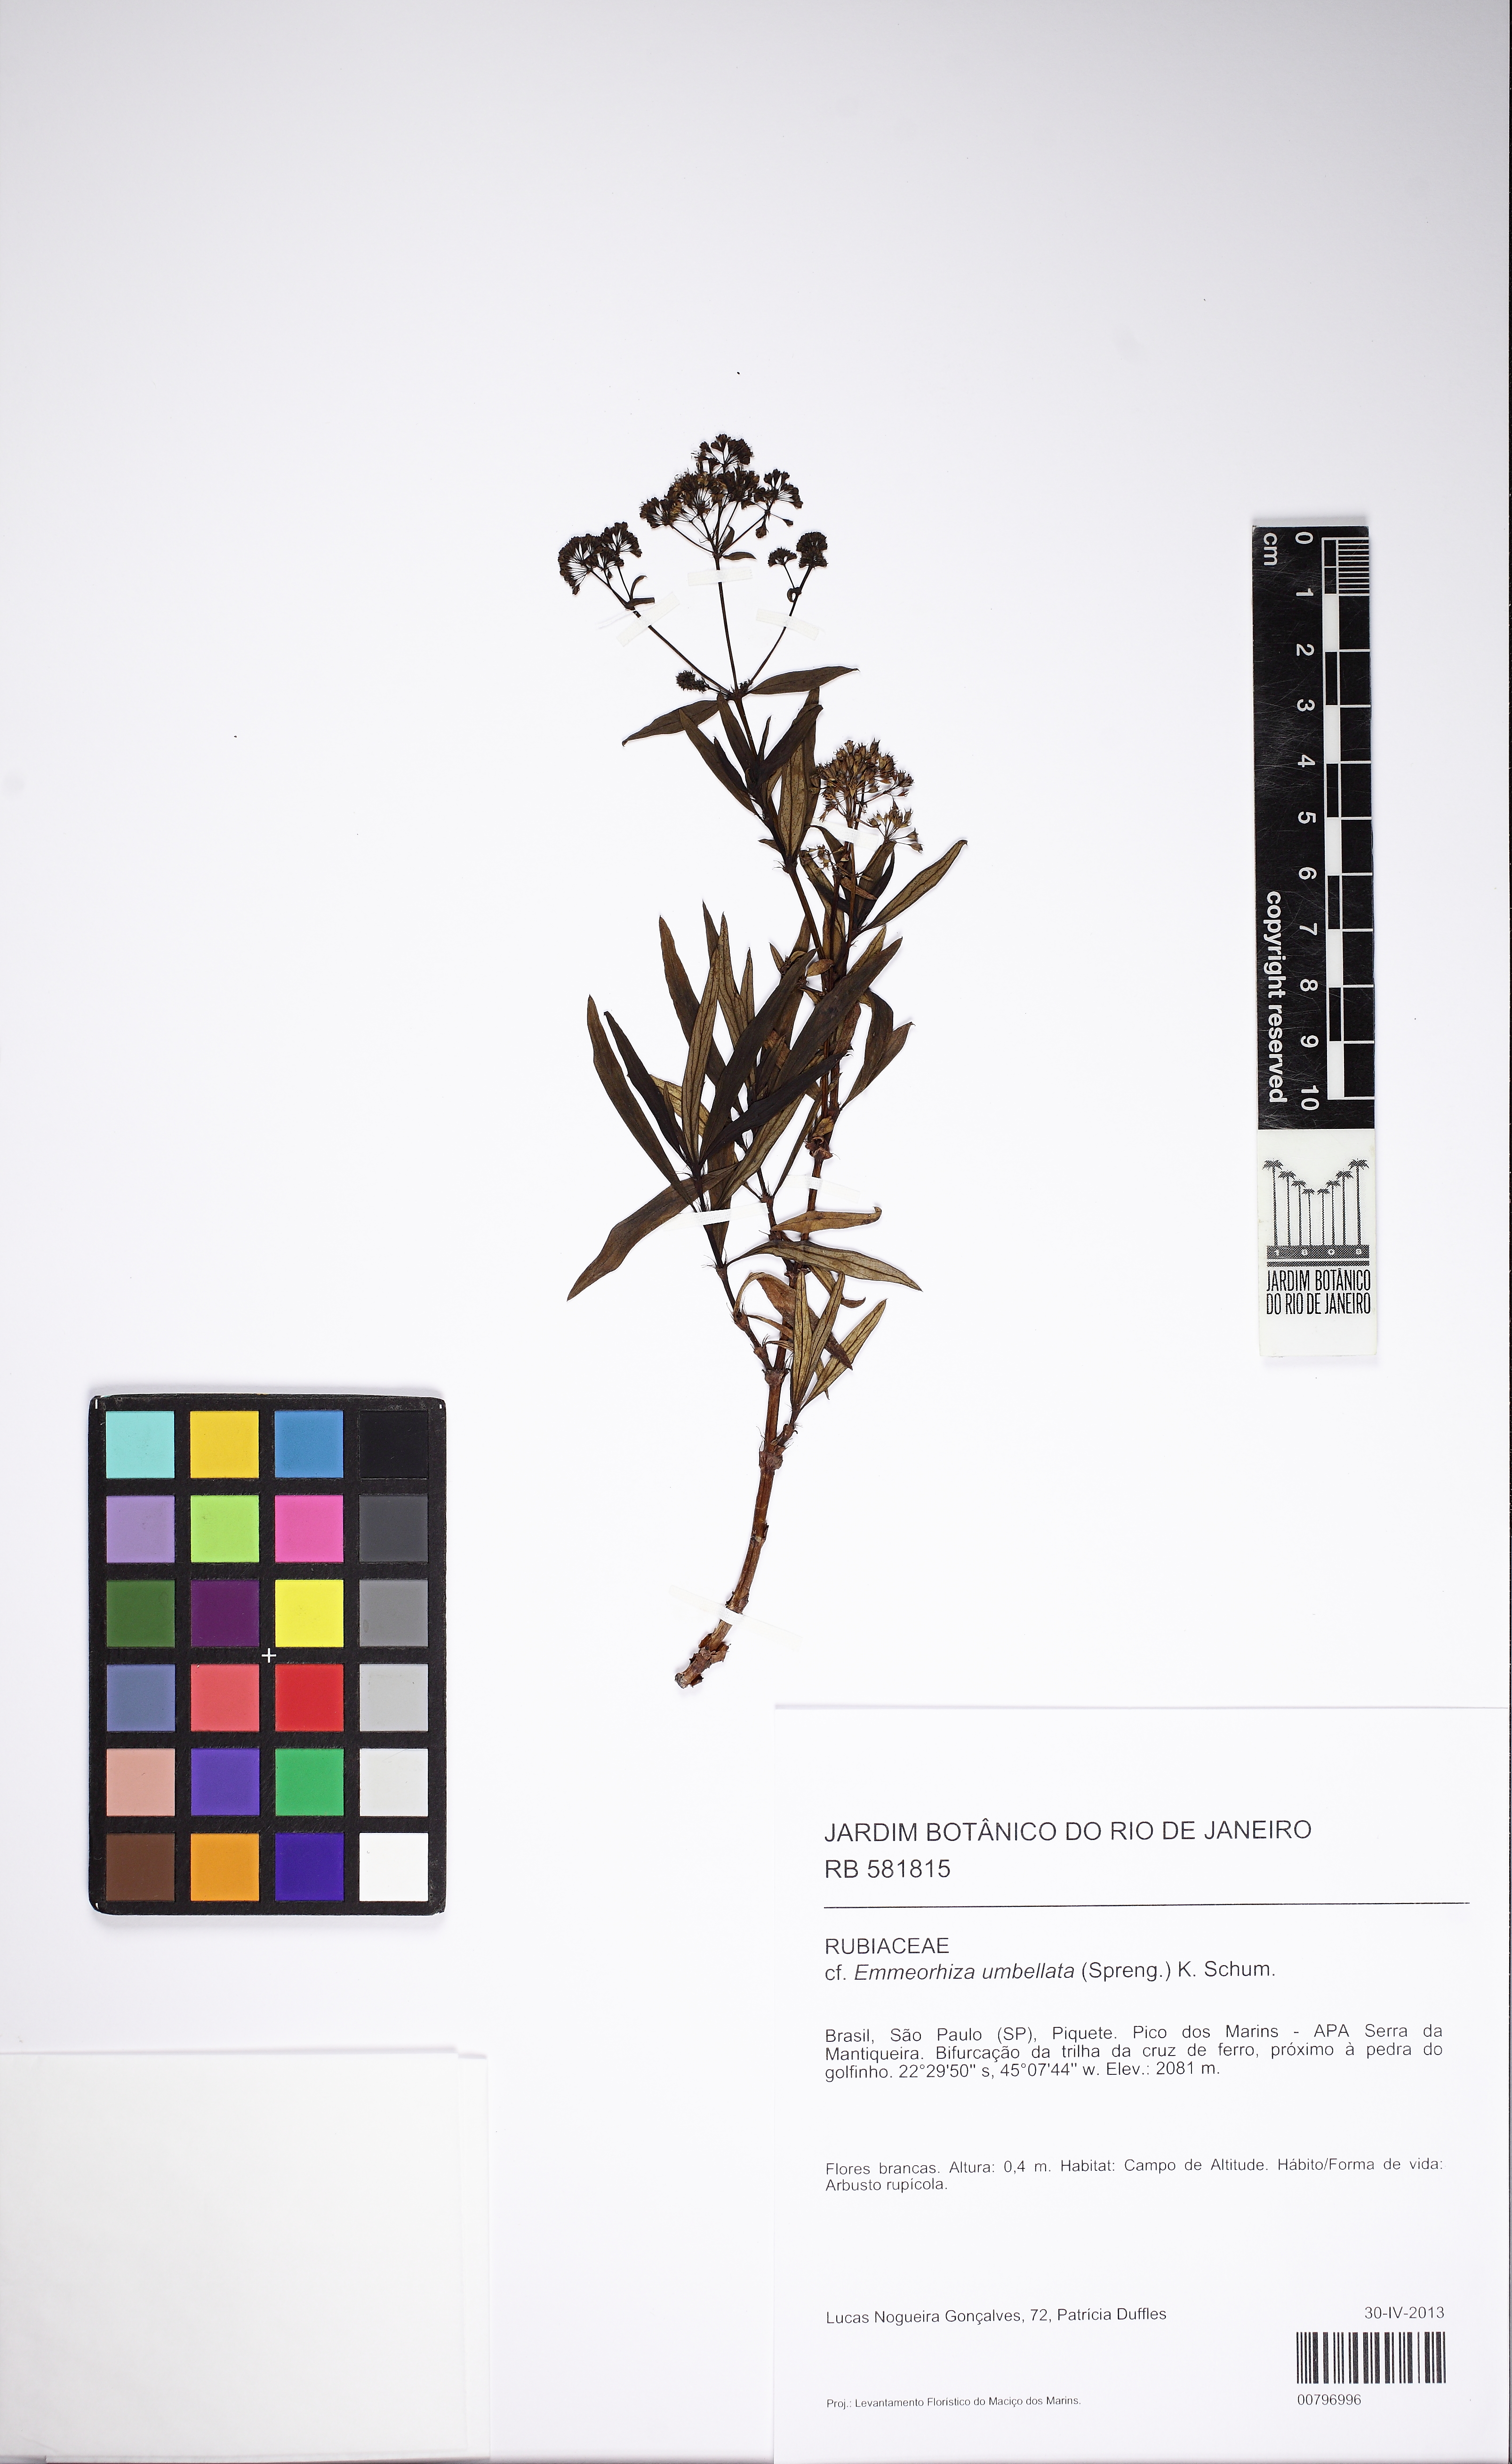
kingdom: Plantae
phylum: Tracheophyta
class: Magnoliopsida
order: Gentianales
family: Rubiaceae
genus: Emmeorhiza
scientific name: Emmeorhiza umbellata
